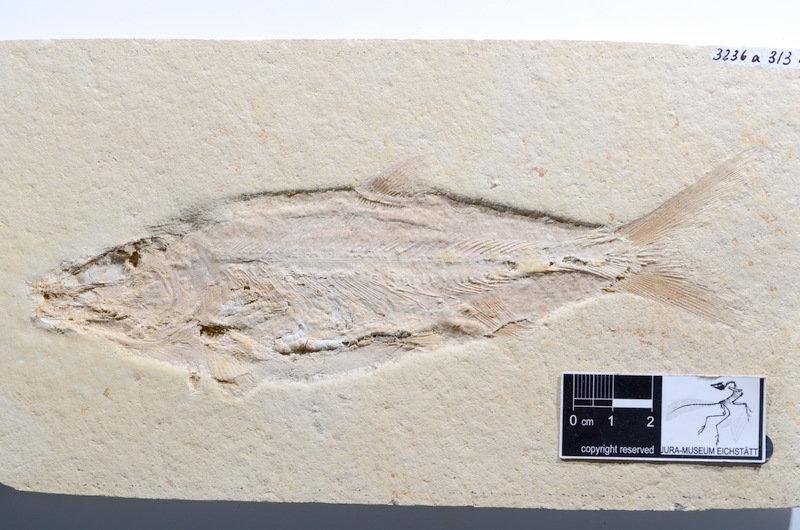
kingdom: Animalia
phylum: Chordata
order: Amiiformes
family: Caturidae
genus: Caturus
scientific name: Caturus furcatus
